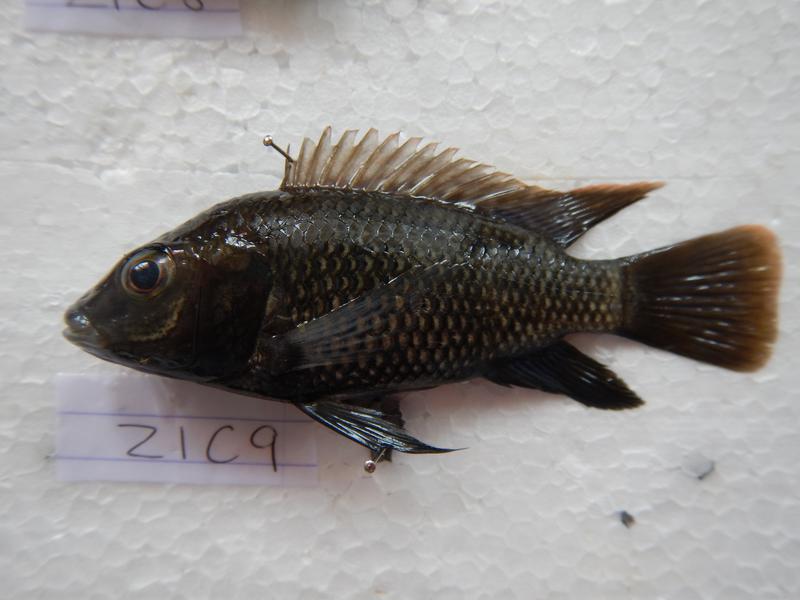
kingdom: Animalia
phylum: Chordata
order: Perciformes
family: Cichlidae
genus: Oreochromis
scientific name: Oreochromis urolepis
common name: Wami tilapia
